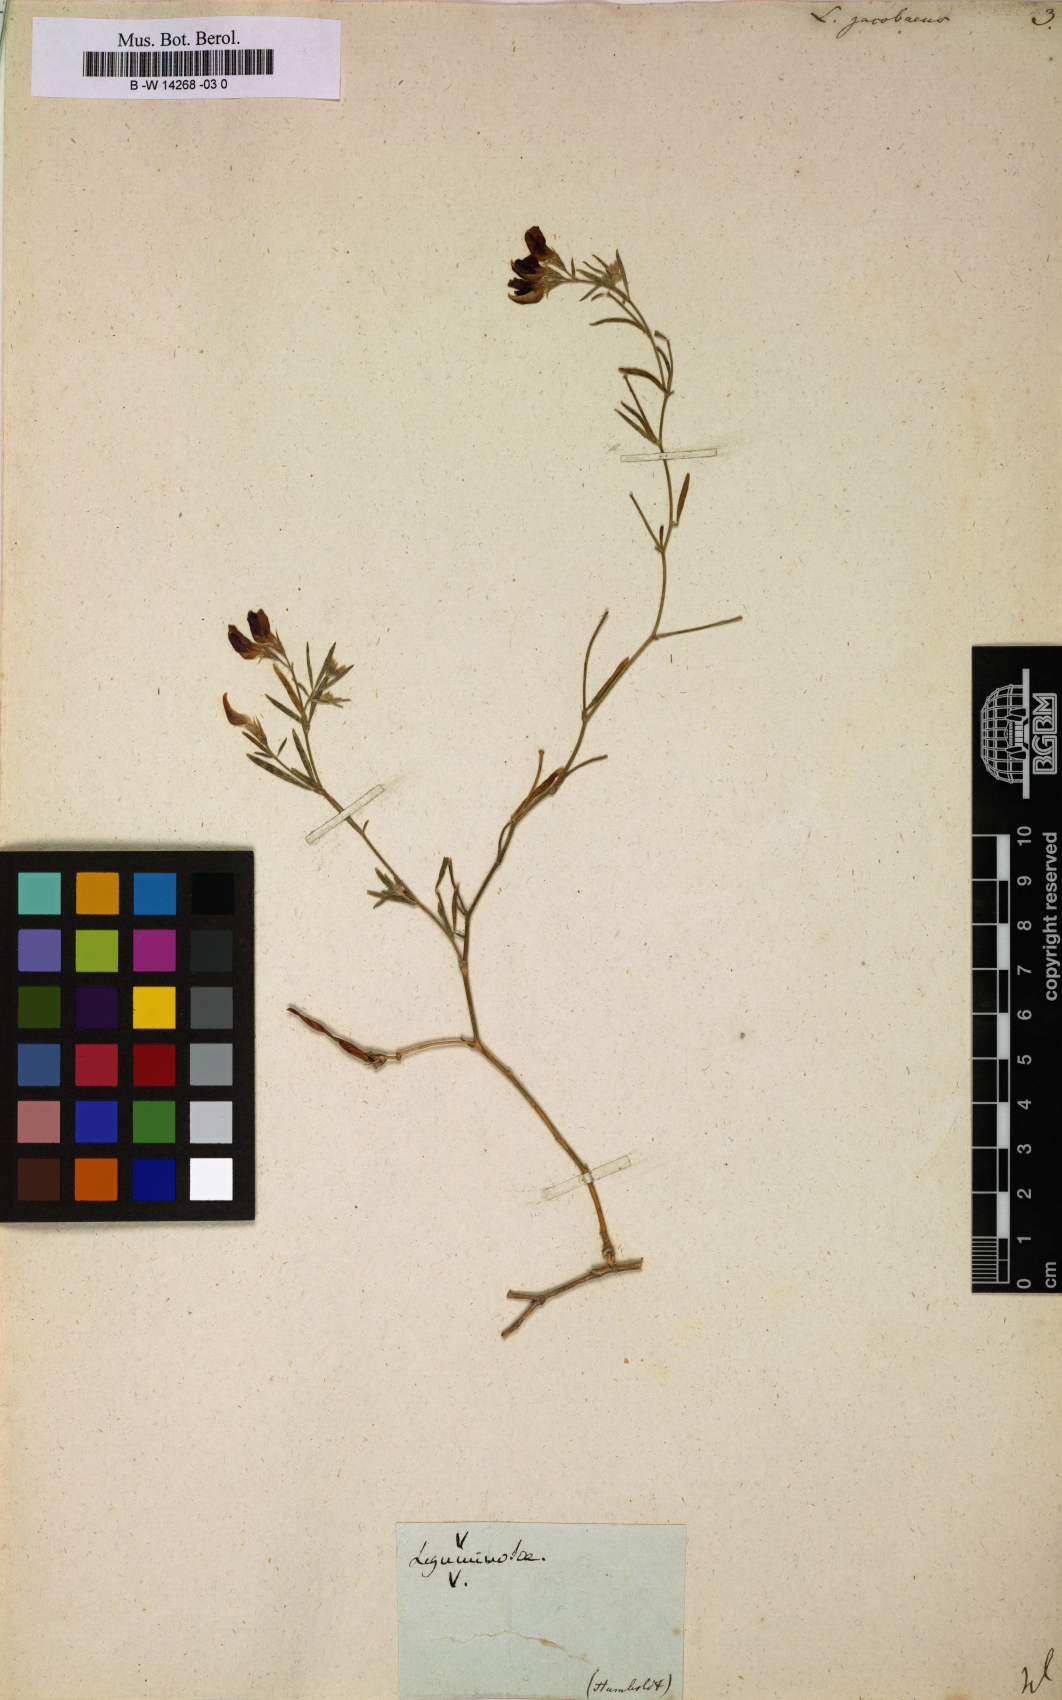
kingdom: Plantae
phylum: Tracheophyta
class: Magnoliopsida
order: Fabales
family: Fabaceae
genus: Lotus
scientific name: Lotus jacobaeus
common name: St. james's trefoil
